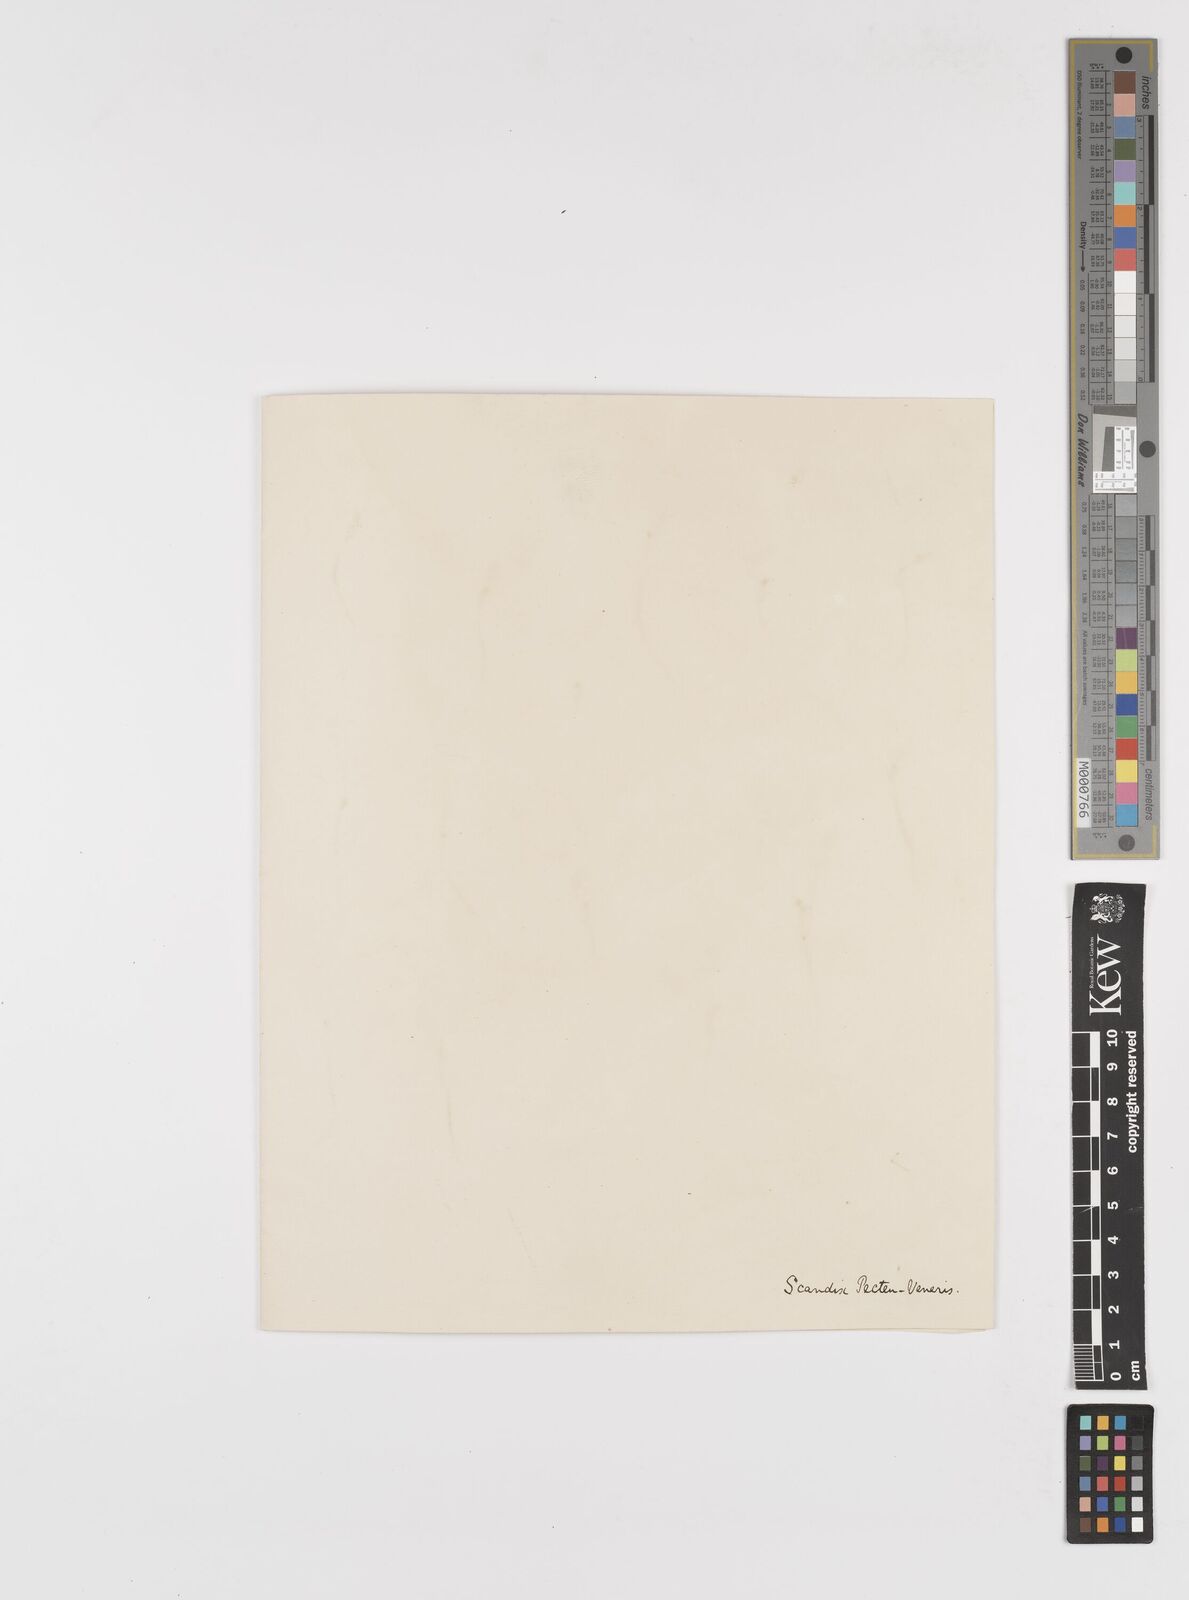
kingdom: Plantae
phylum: Tracheophyta
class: Magnoliopsida
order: Apiales
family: Apiaceae
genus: Scandix
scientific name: Scandix pecten-veneris
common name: Shepherd's-needle
